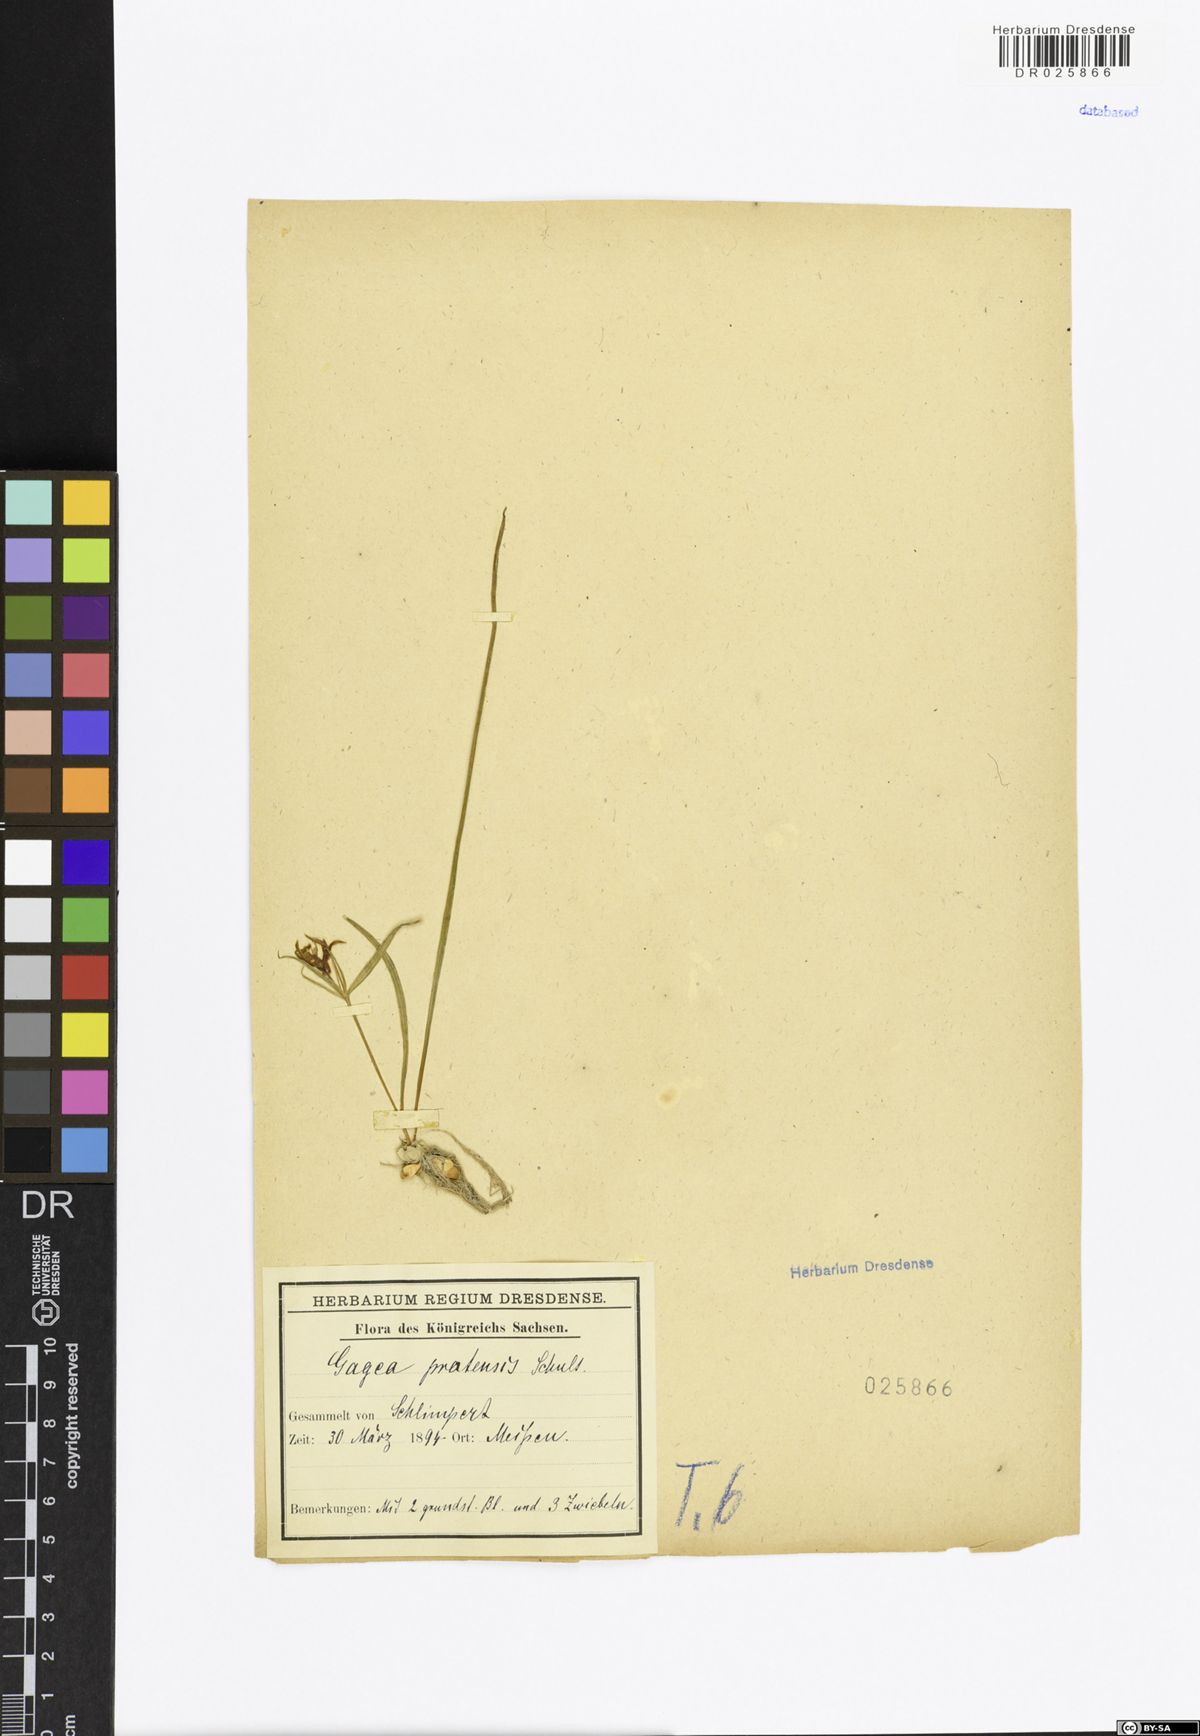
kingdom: Plantae
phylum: Tracheophyta
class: Liliopsida
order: Liliales
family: Liliaceae
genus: Gagea
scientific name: Gagea pratensis
